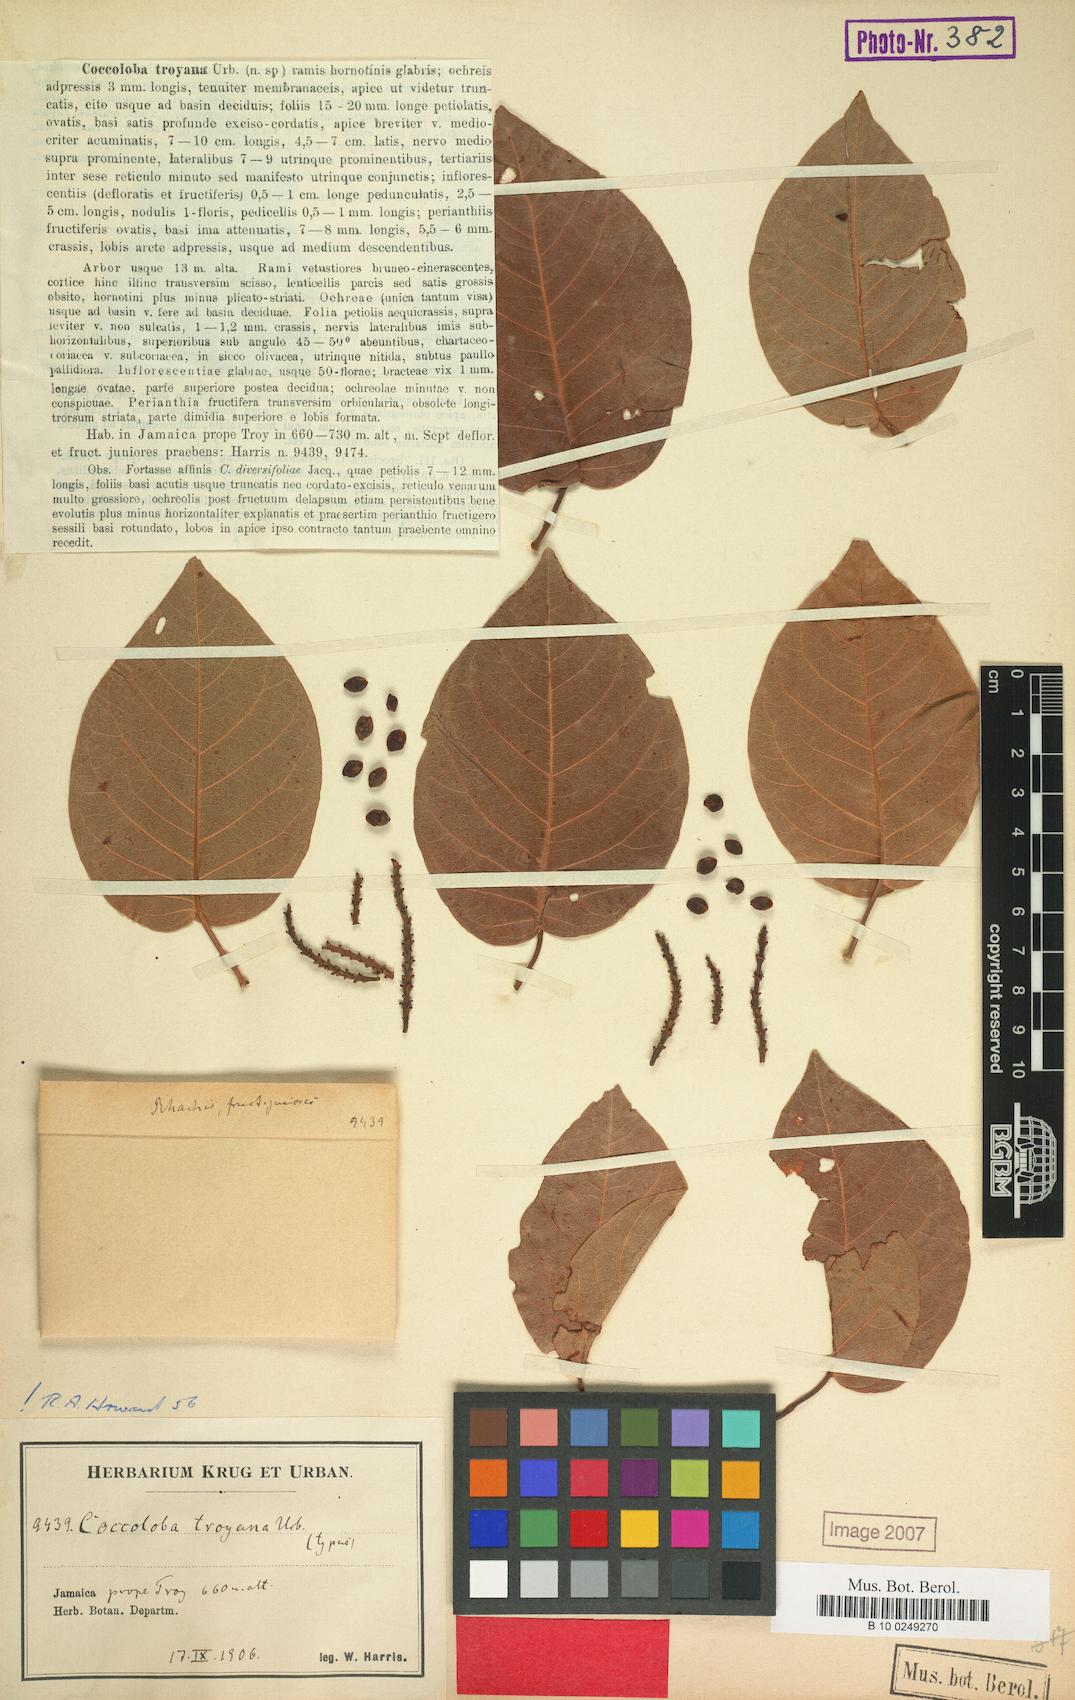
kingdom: Plantae
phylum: Tracheophyta
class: Magnoliopsida
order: Caryophyllales
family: Polygonaceae
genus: Coccoloba
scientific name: Coccoloba troyana
